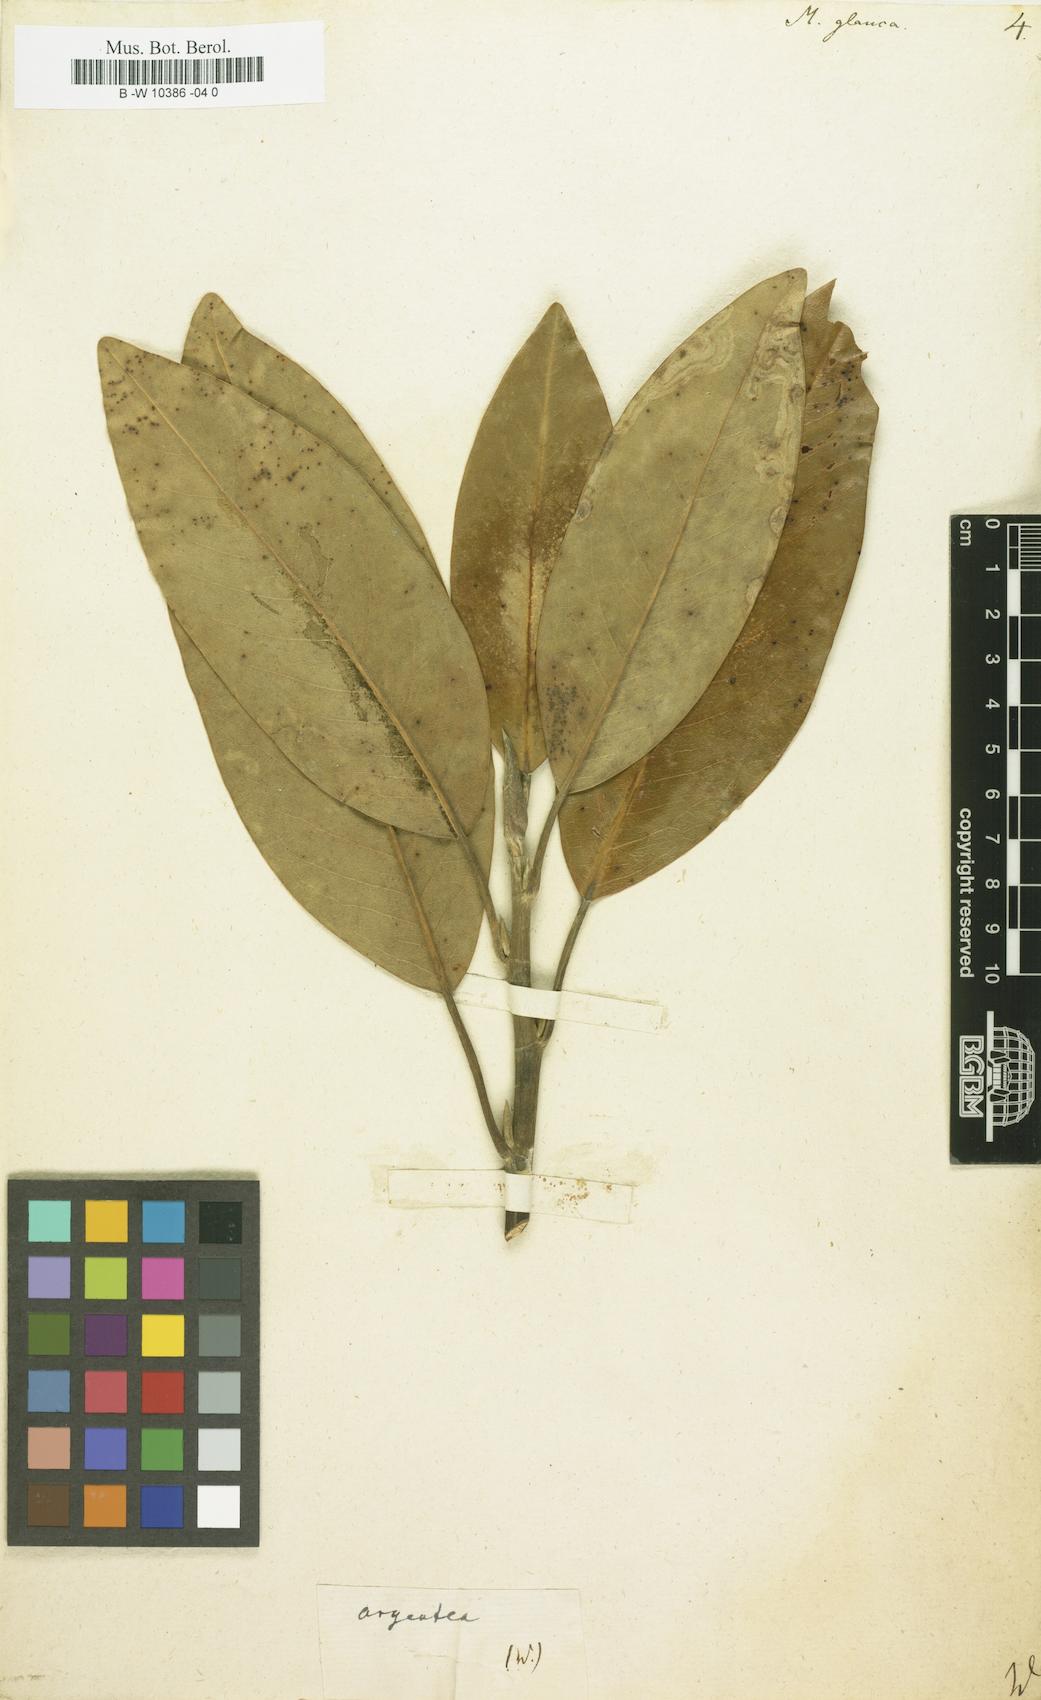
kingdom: Plantae
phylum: Tracheophyta
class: Magnoliopsida
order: Magnoliales
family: Magnoliaceae
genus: Magnolia
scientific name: Magnolia
